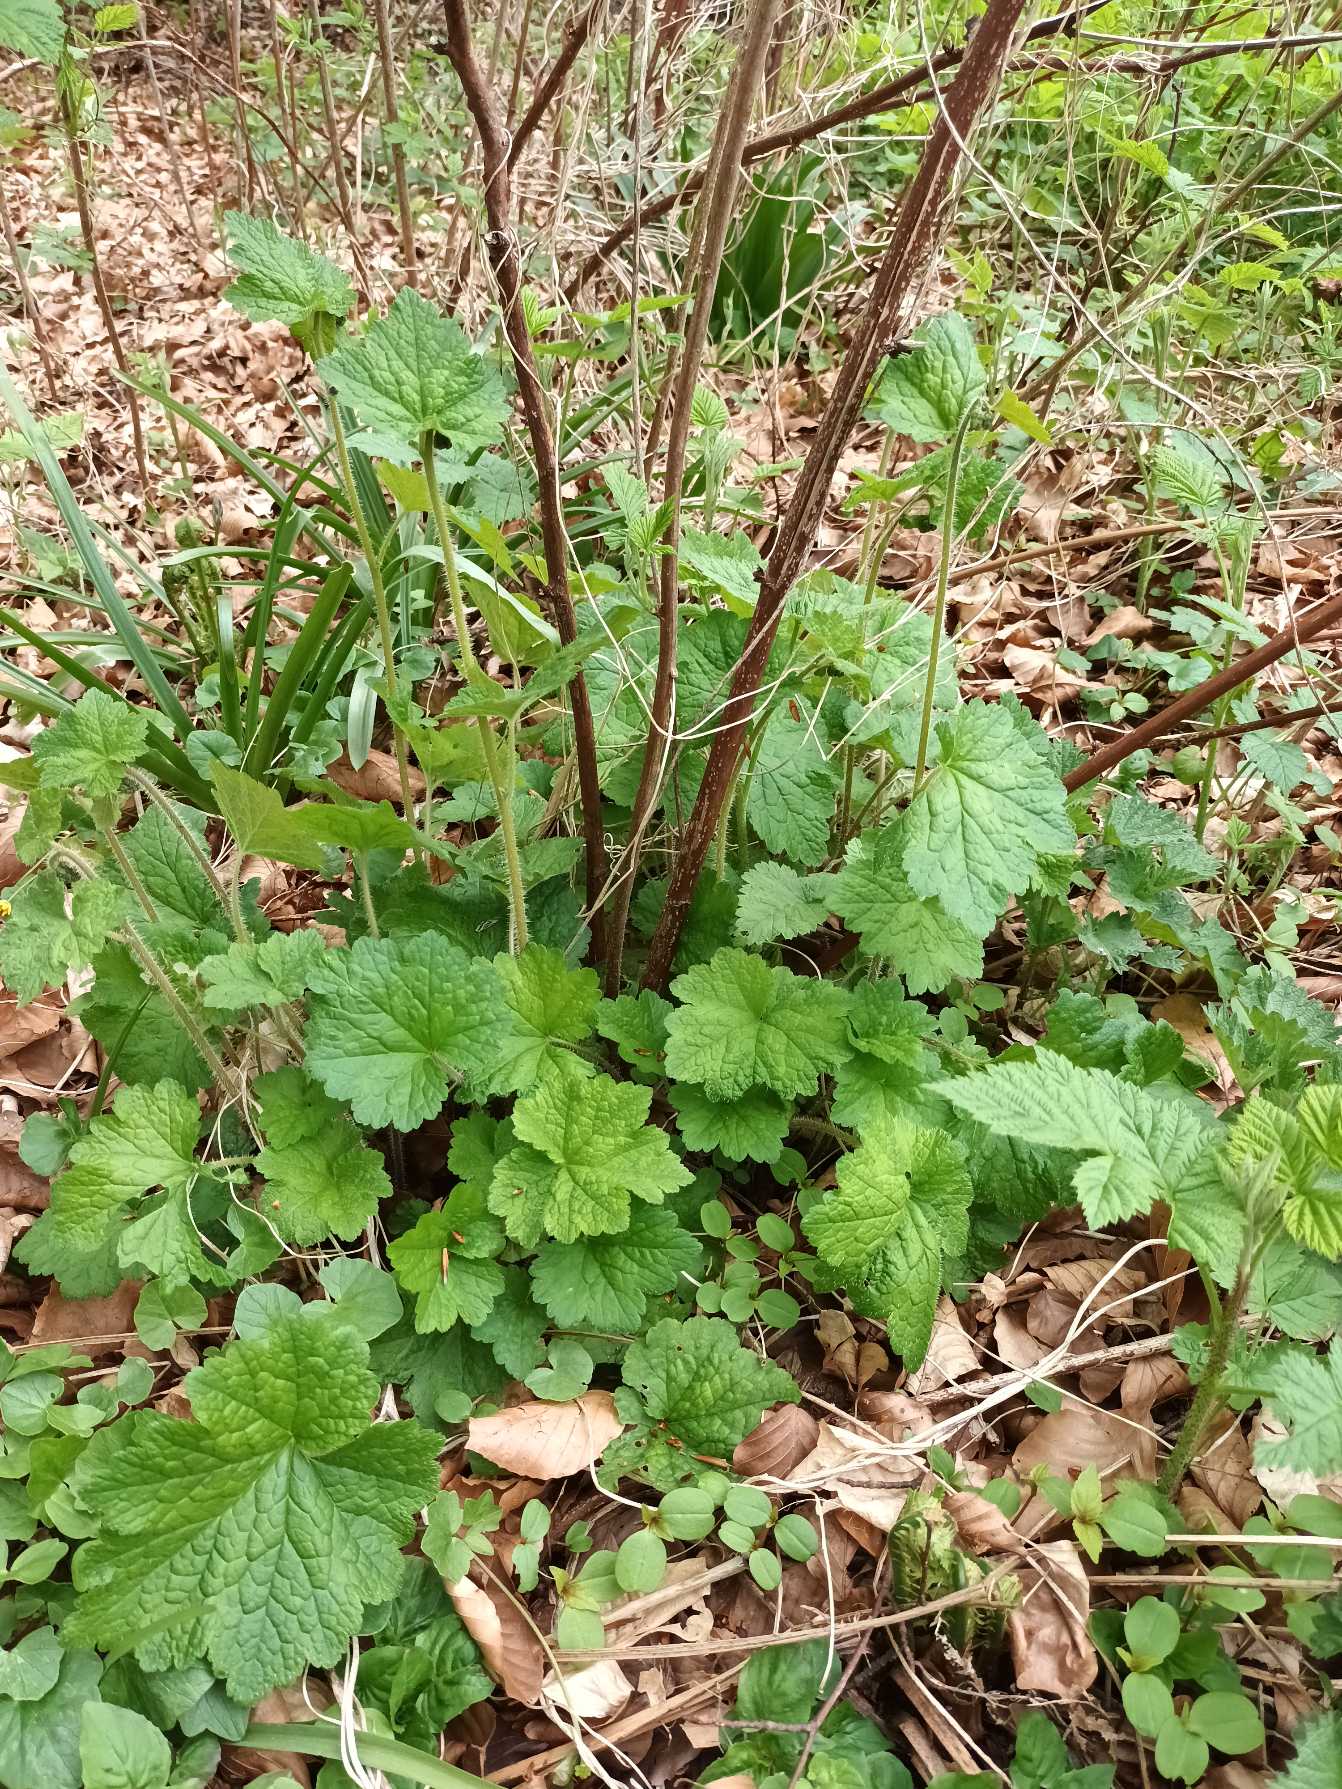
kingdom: Plantae
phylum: Tracheophyta
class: Magnoliopsida
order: Saxifragales
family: Saxifragaceae
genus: Tellima
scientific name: Tellima grandiflora
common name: Biskophat
